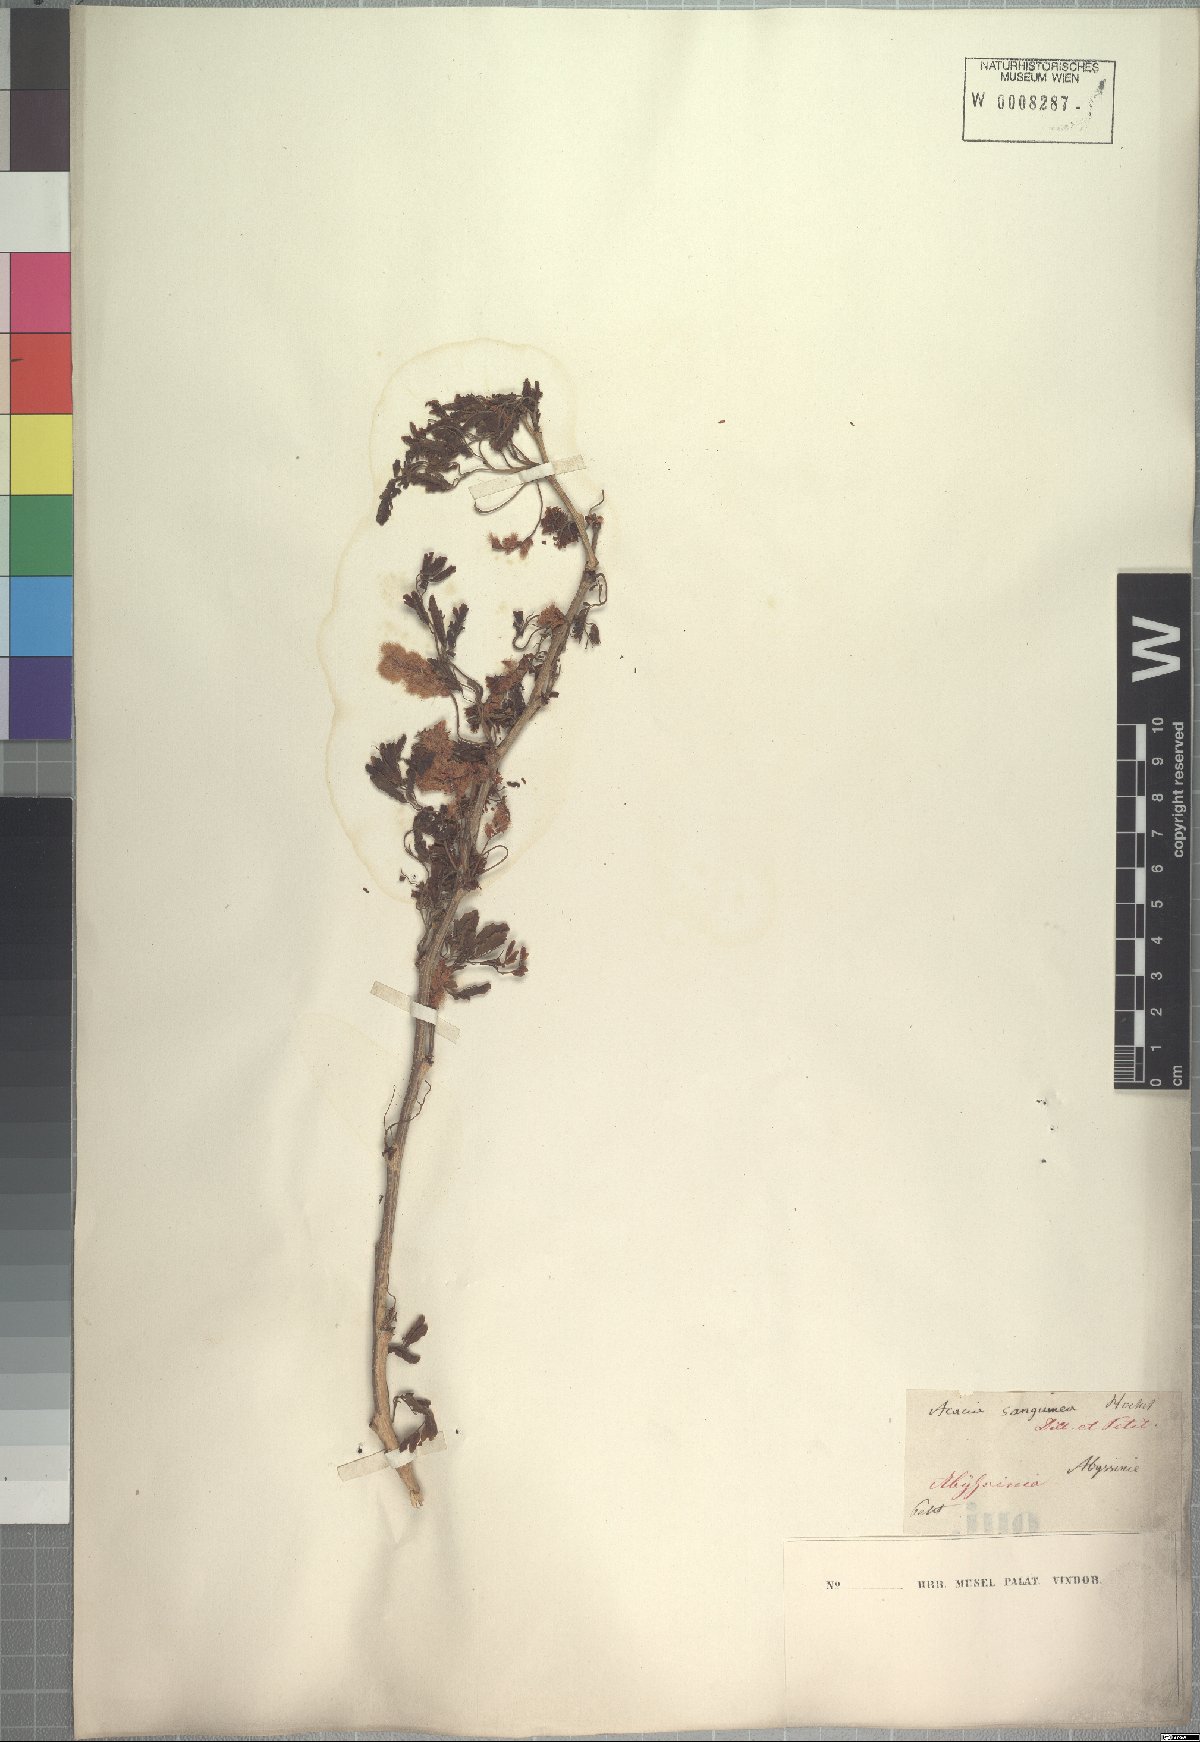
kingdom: Plantae
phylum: Tracheophyta
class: Magnoliopsida
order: Fabales
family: Fabaceae
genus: Senegalia
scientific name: Senegalia venosa
